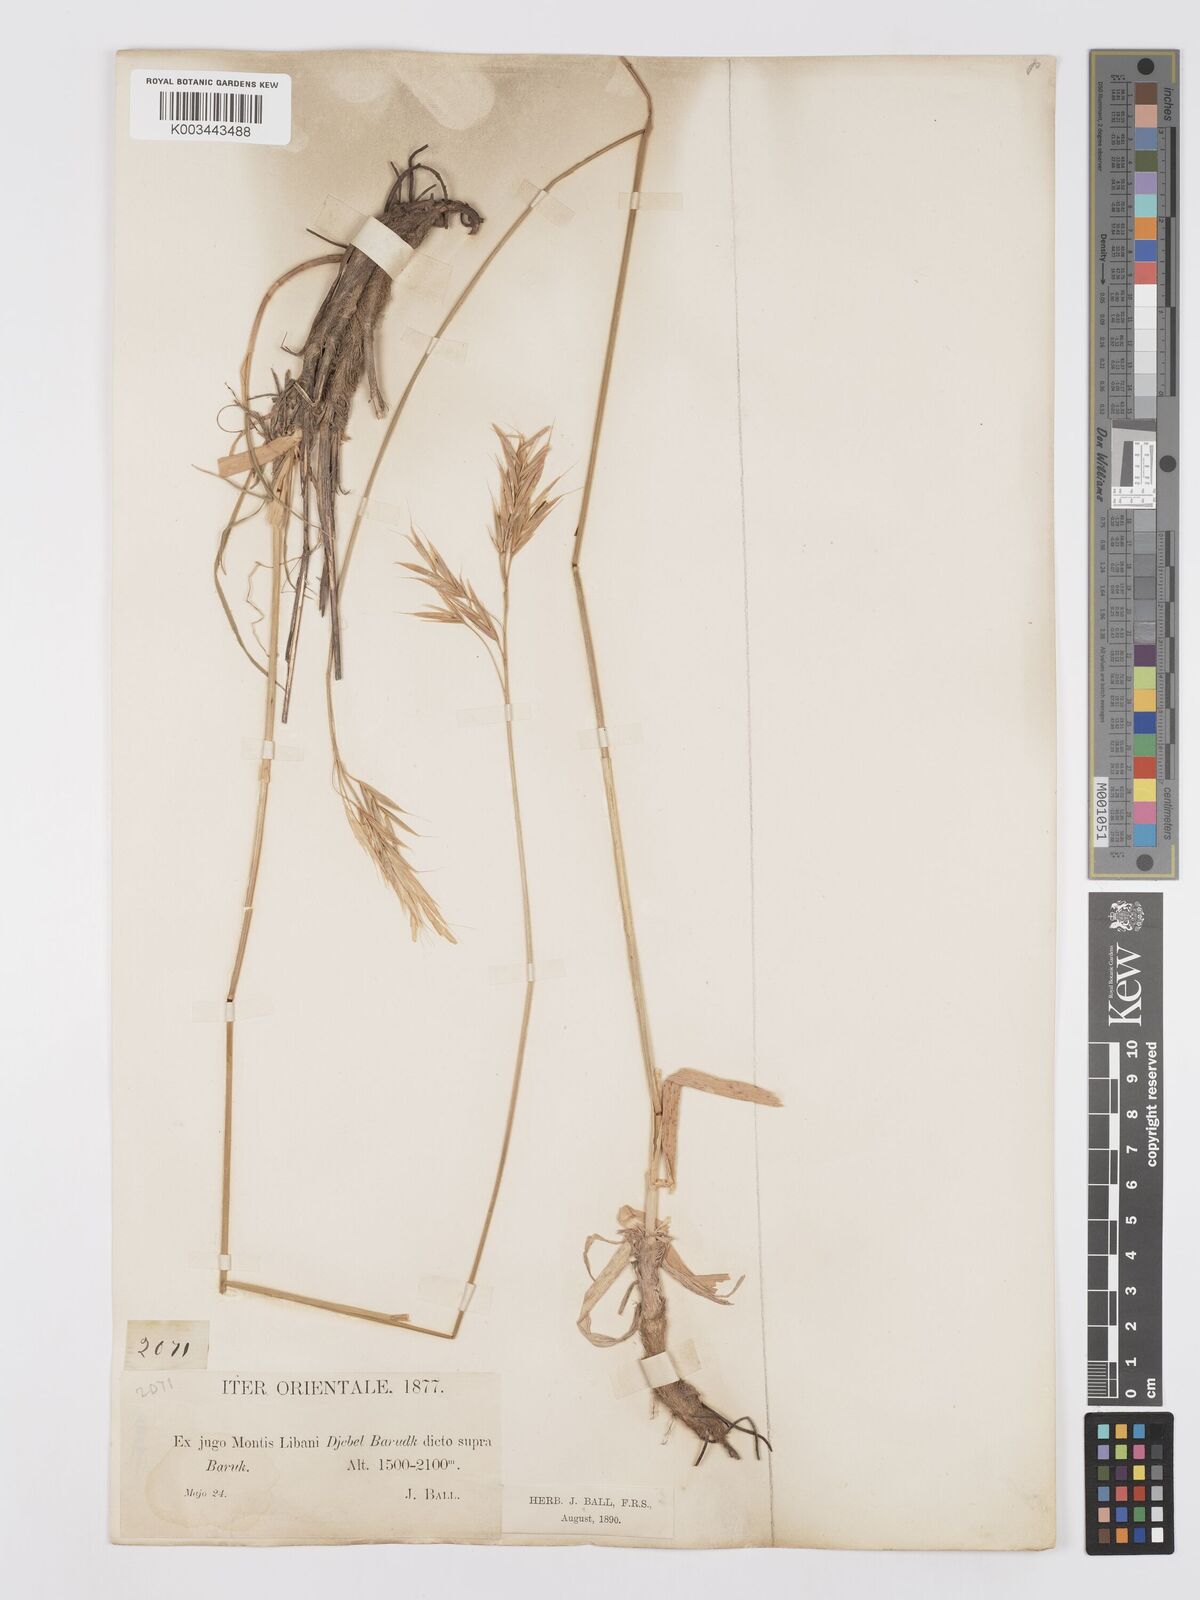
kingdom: Plantae
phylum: Tracheophyta
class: Liliopsida
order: Poales
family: Poaceae
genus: Bromus
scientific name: Bromus tomentellus
